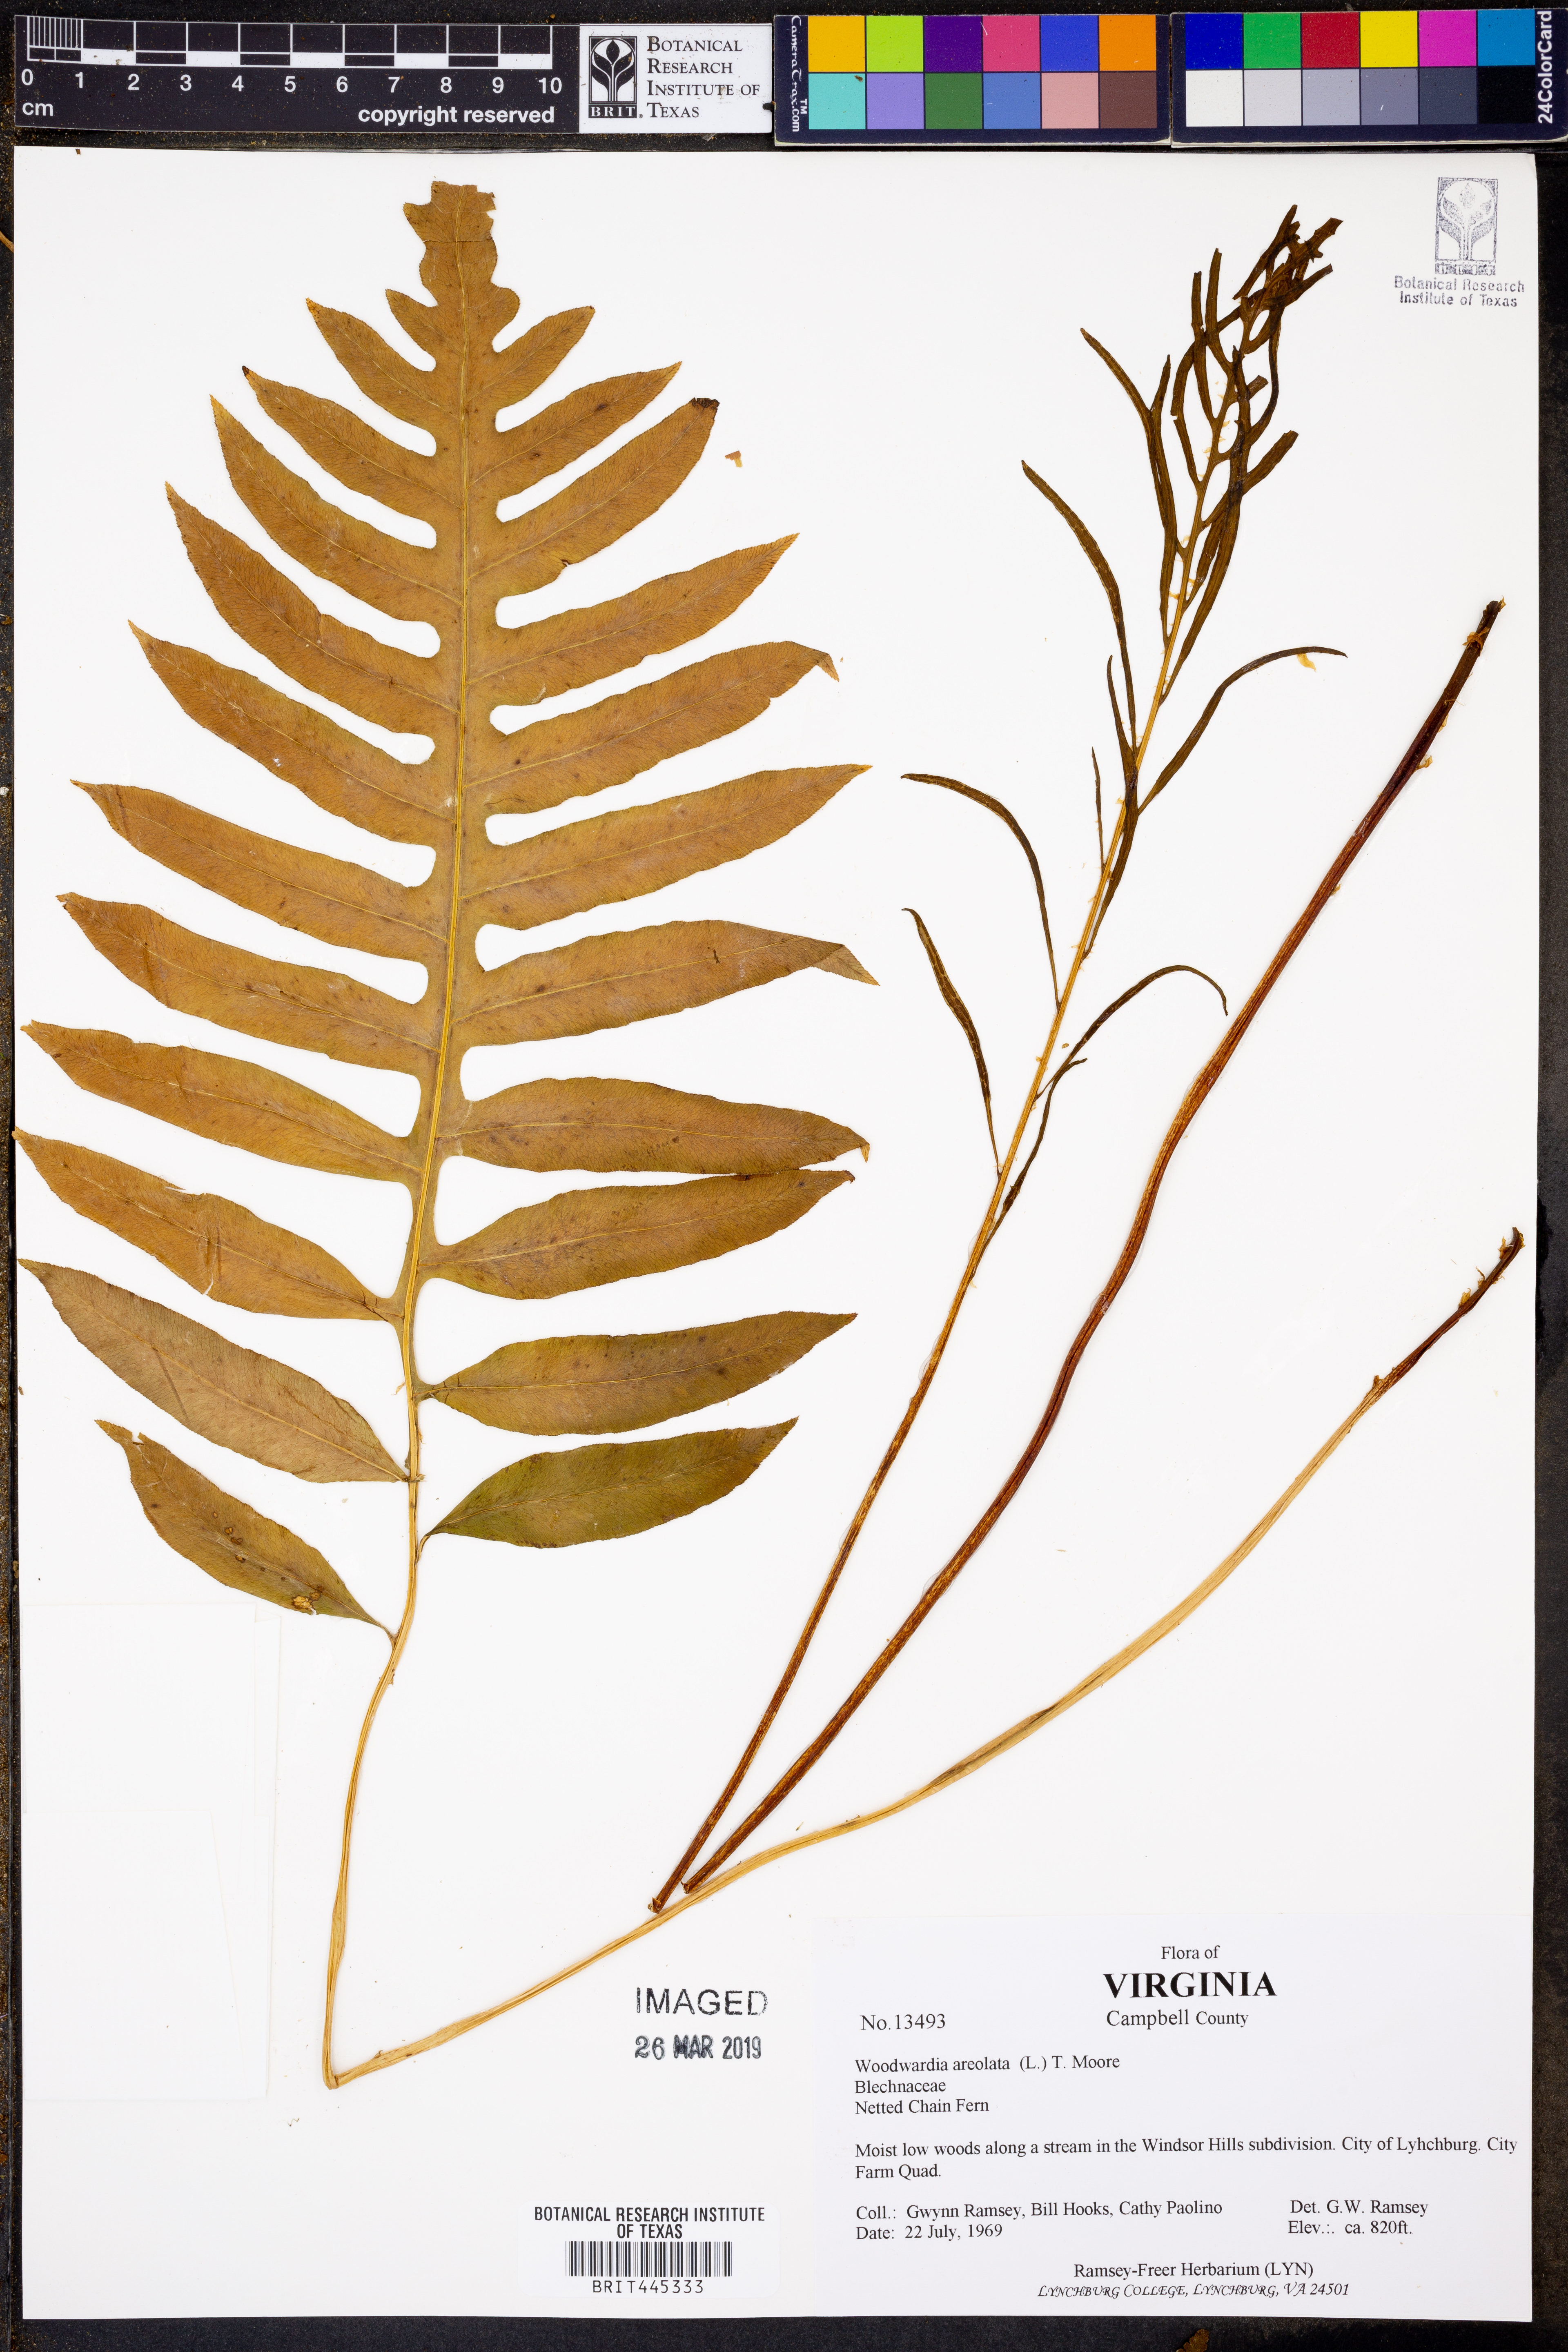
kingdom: Plantae
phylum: Tracheophyta
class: Polypodiopsida
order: Polypodiales
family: Blechnaceae
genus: Lorinseria
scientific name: Lorinseria areolata
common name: Dwarf chain fern
